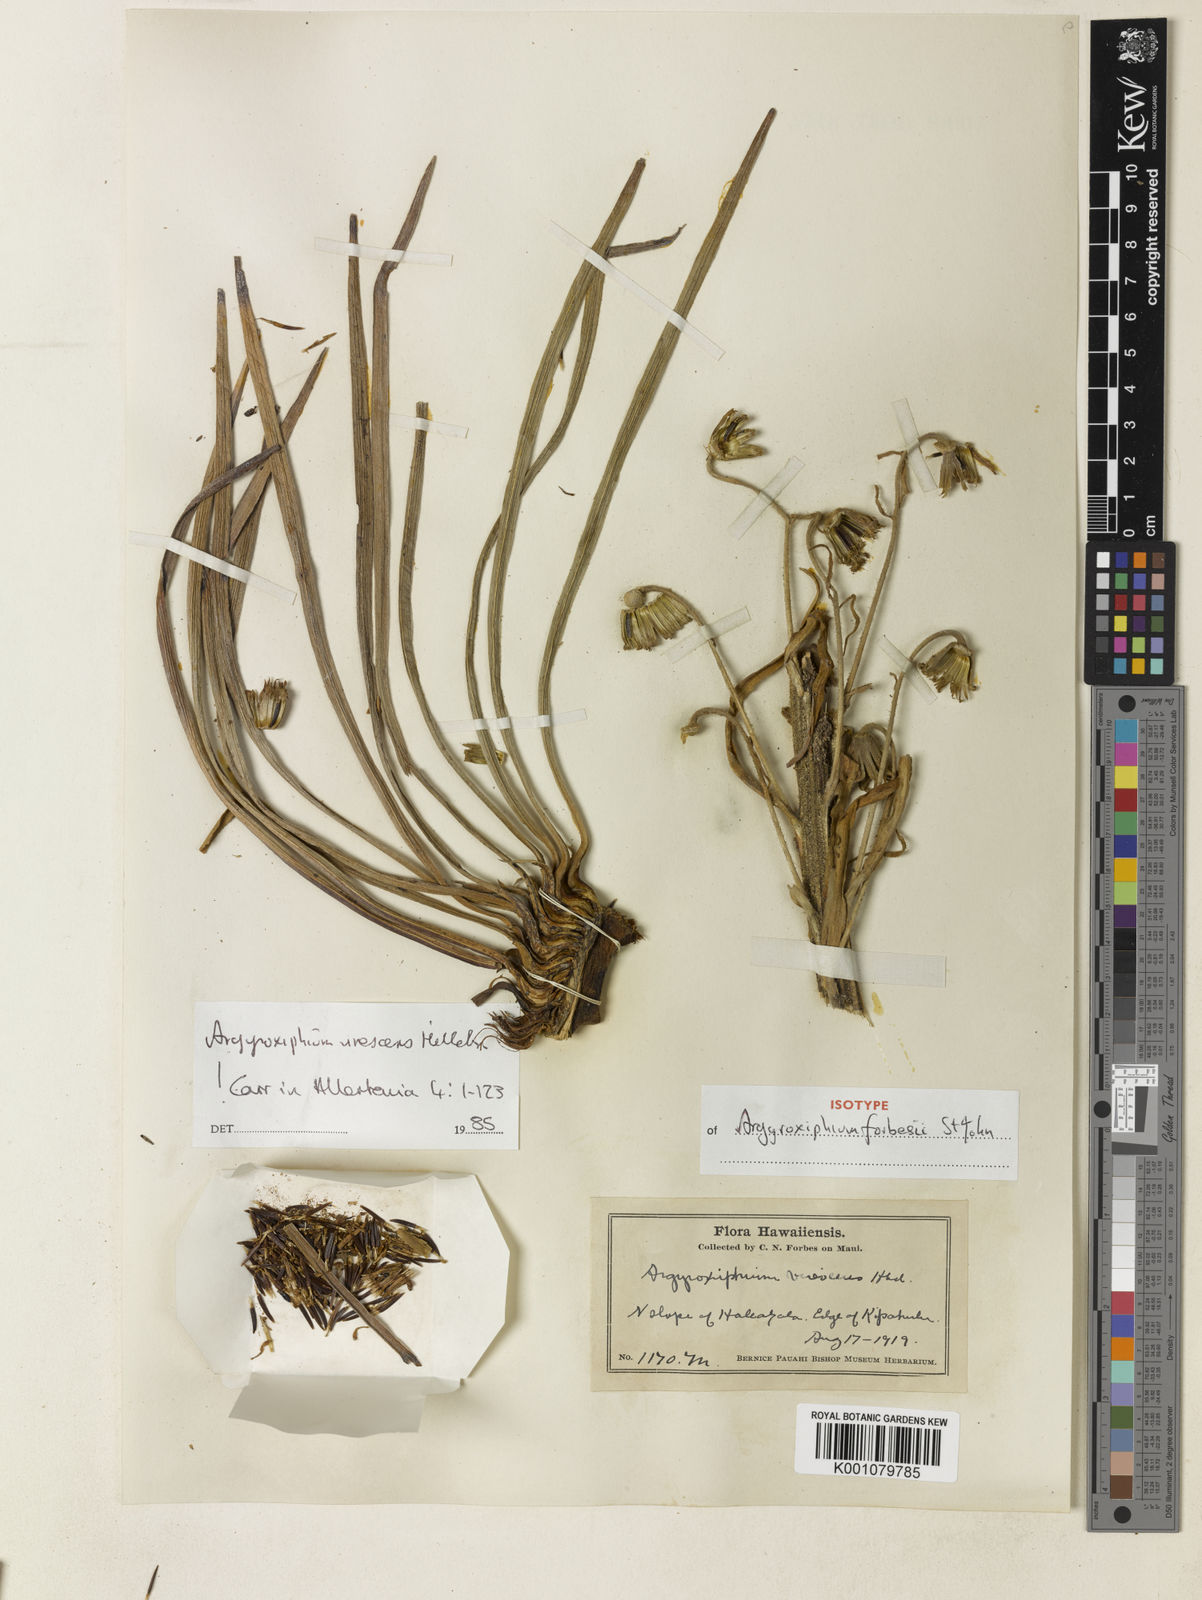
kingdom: Plantae
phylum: Tracheophyta
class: Magnoliopsida
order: Asterales
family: Asteraceae
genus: Argyroxiphium
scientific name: Argyroxiphium virescens
